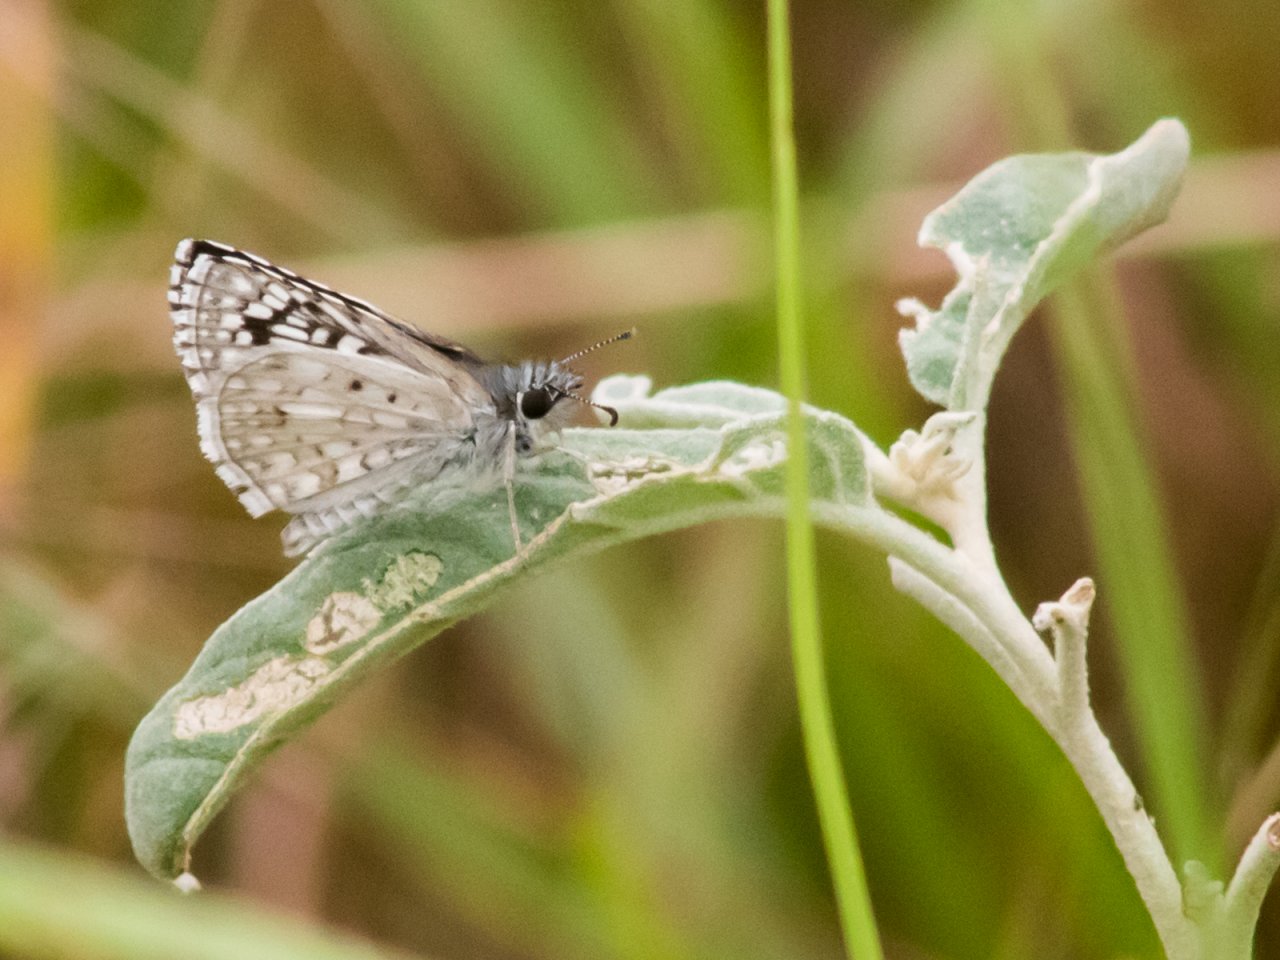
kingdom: Animalia
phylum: Arthropoda
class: Insecta
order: Lepidoptera
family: Hesperiidae
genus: Pyrgus
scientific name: Pyrgus oileus
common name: Desert Checkered-Skipper
